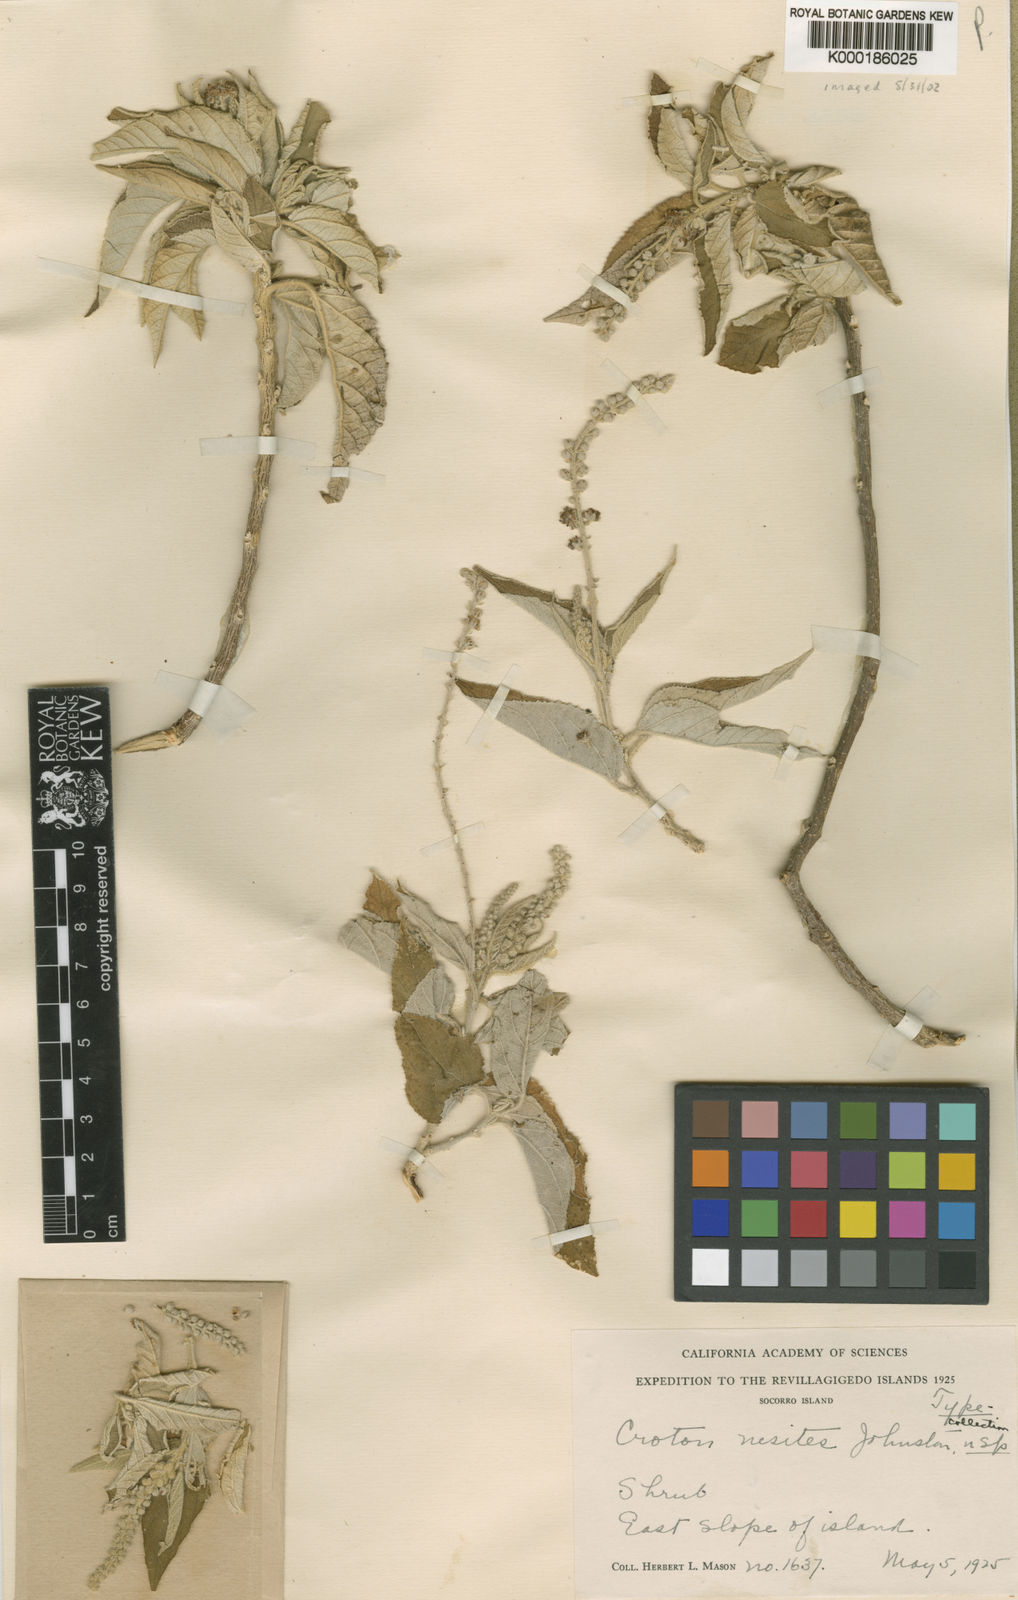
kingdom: Plantae
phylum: Tracheophyta
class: Magnoliopsida
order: Malpighiales
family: Euphorbiaceae
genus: Croton
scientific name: Croton
